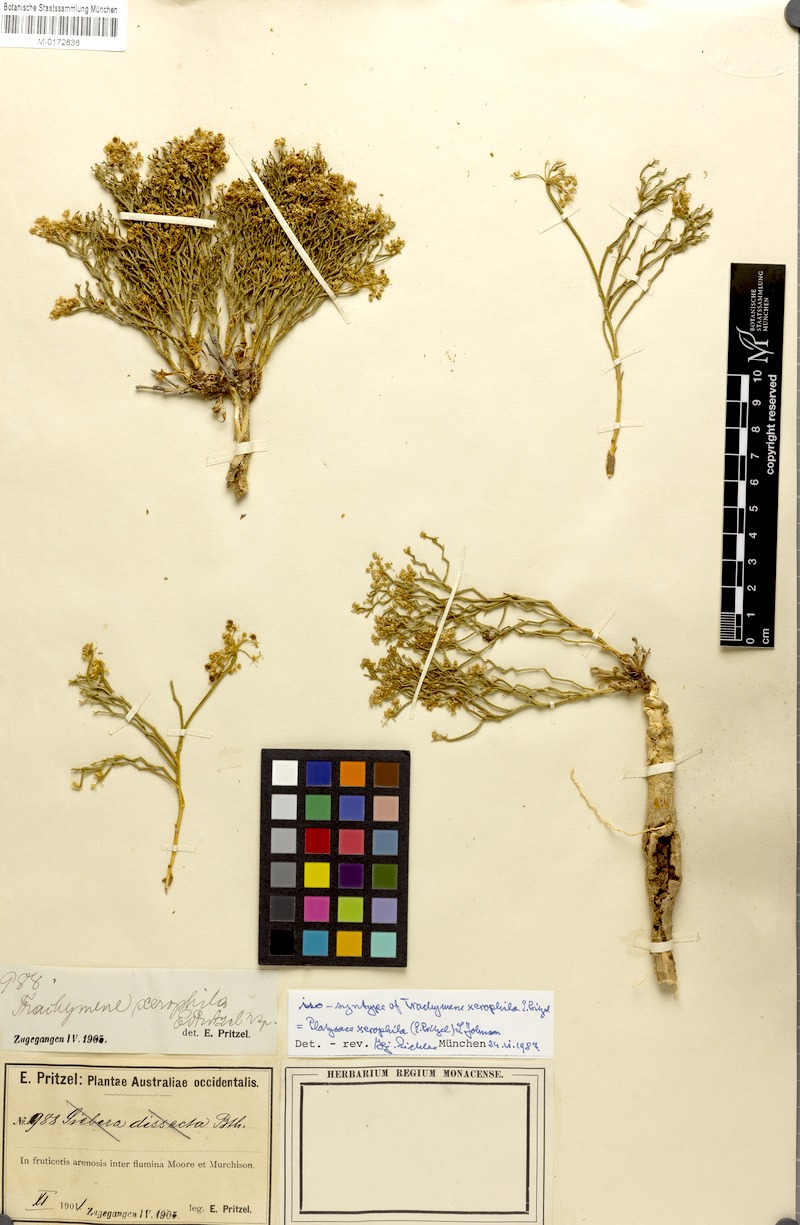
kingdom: Plantae
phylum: Tracheophyta
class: Magnoliopsida
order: Apiales
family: Apiaceae
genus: Platysace
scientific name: Platysace xerophila
